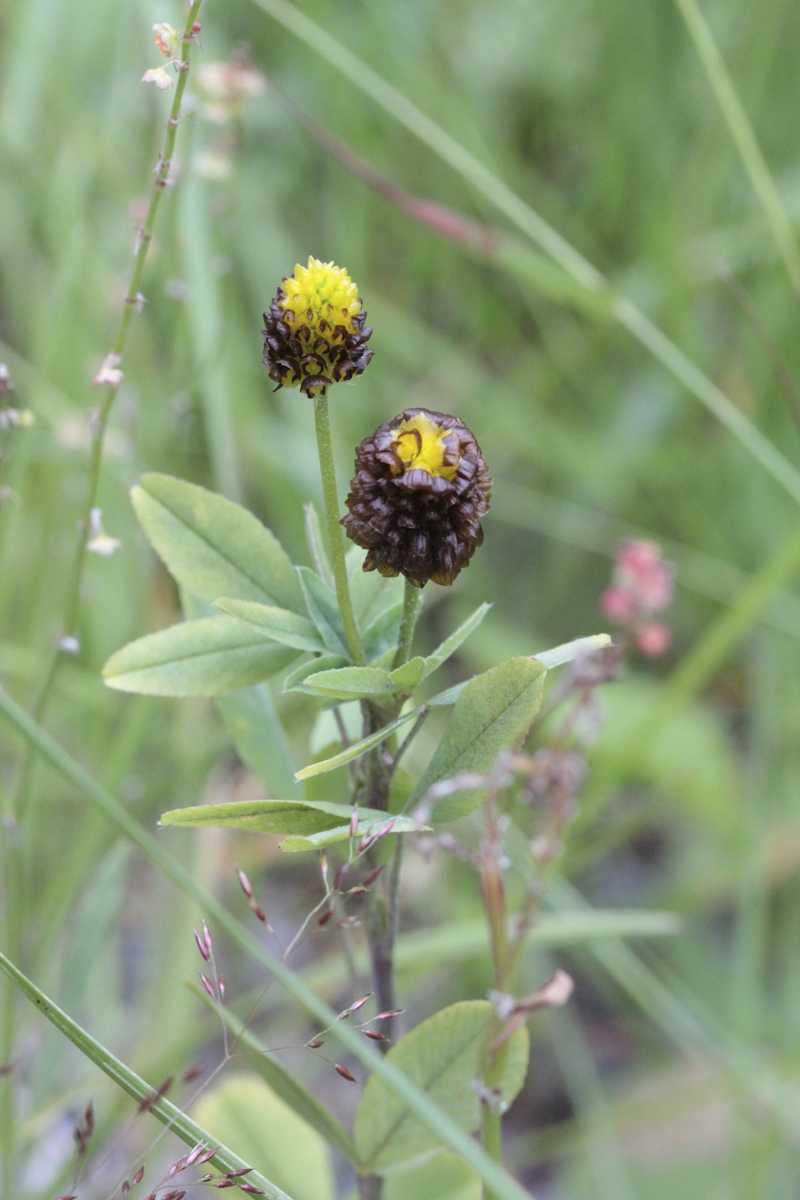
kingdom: Plantae
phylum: Tracheophyta
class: Magnoliopsida
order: Fabales
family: Fabaceae
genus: Trifolium
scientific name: Trifolium spadiceum
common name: Brown moor clover
